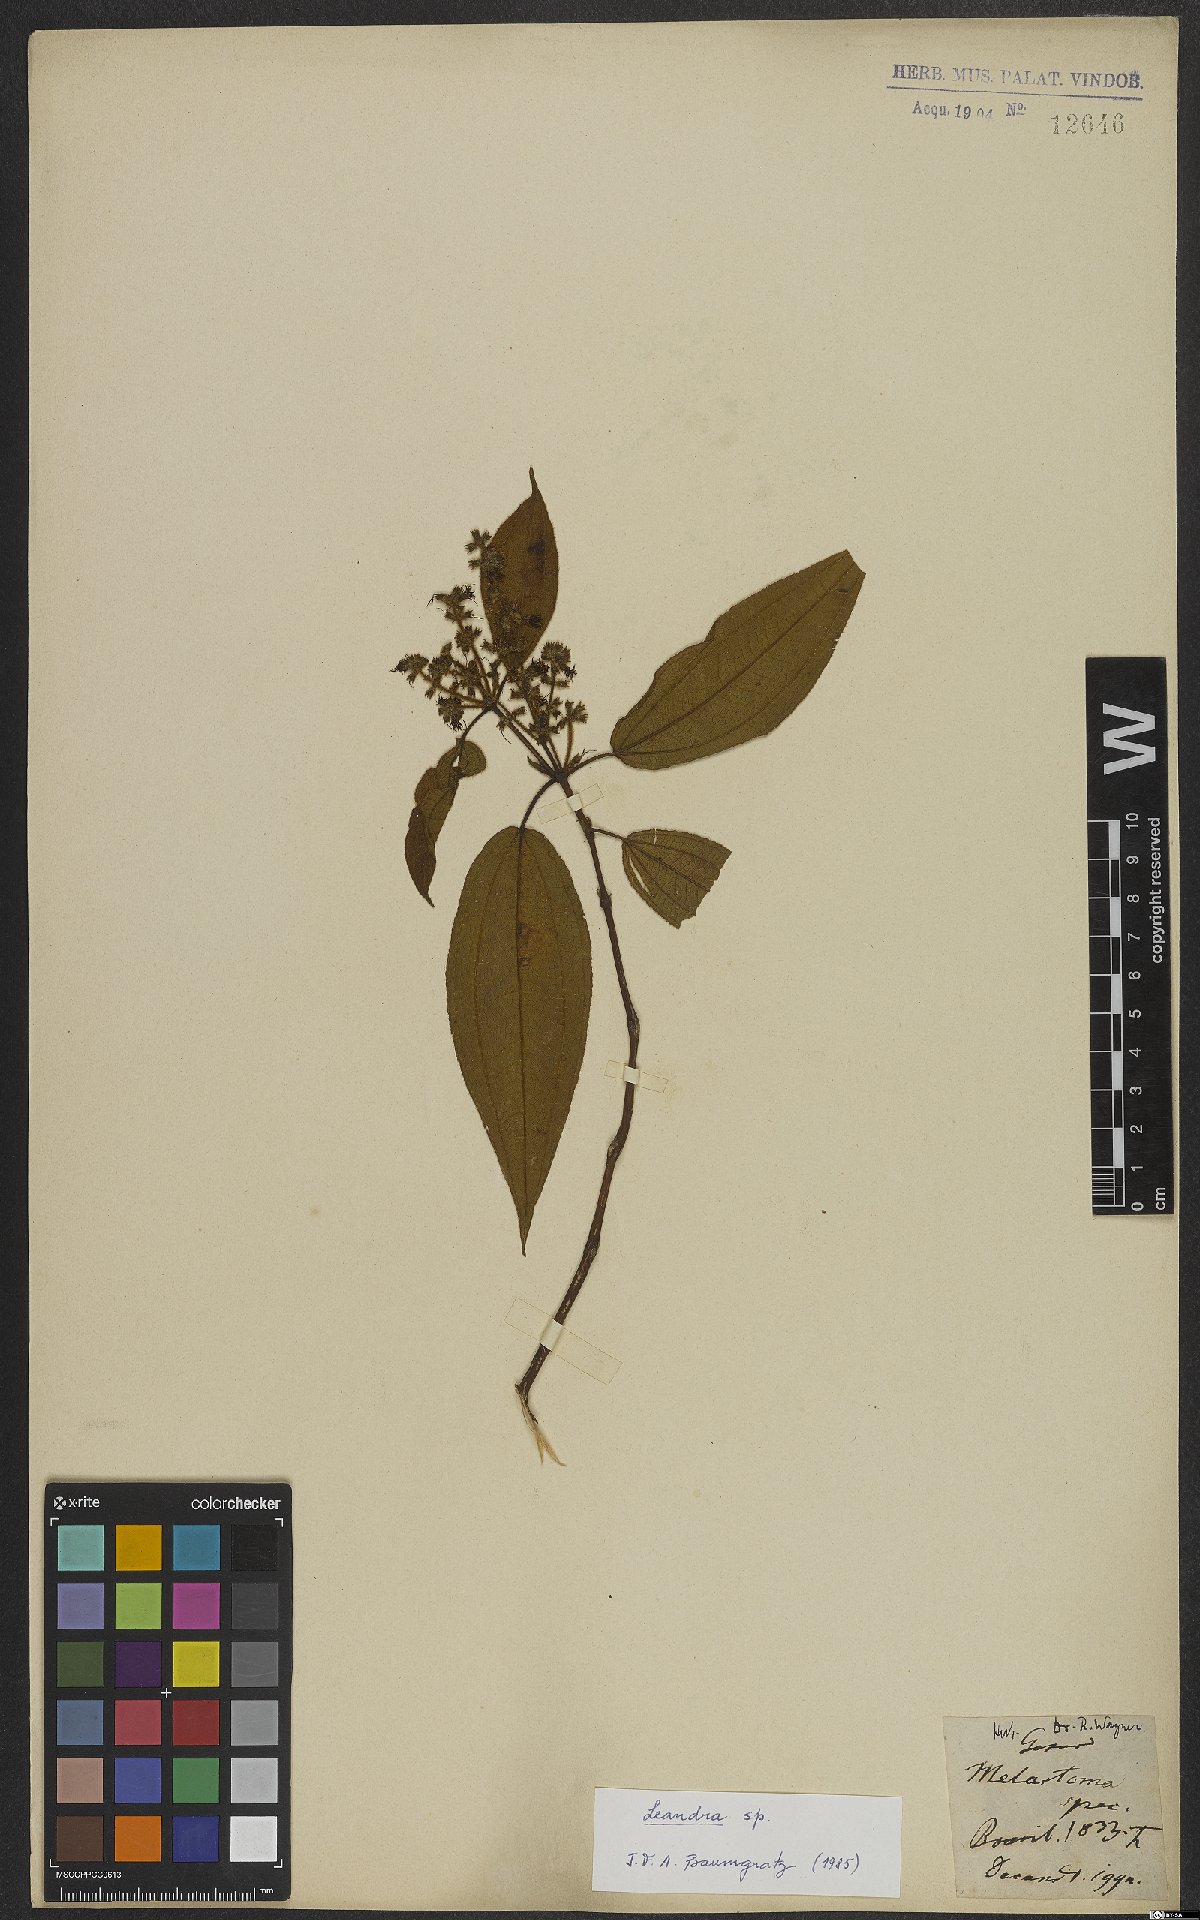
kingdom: Plantae
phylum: Tracheophyta
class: Magnoliopsida
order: Myrtales
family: Melastomataceae
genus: Miconia
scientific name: Miconia
